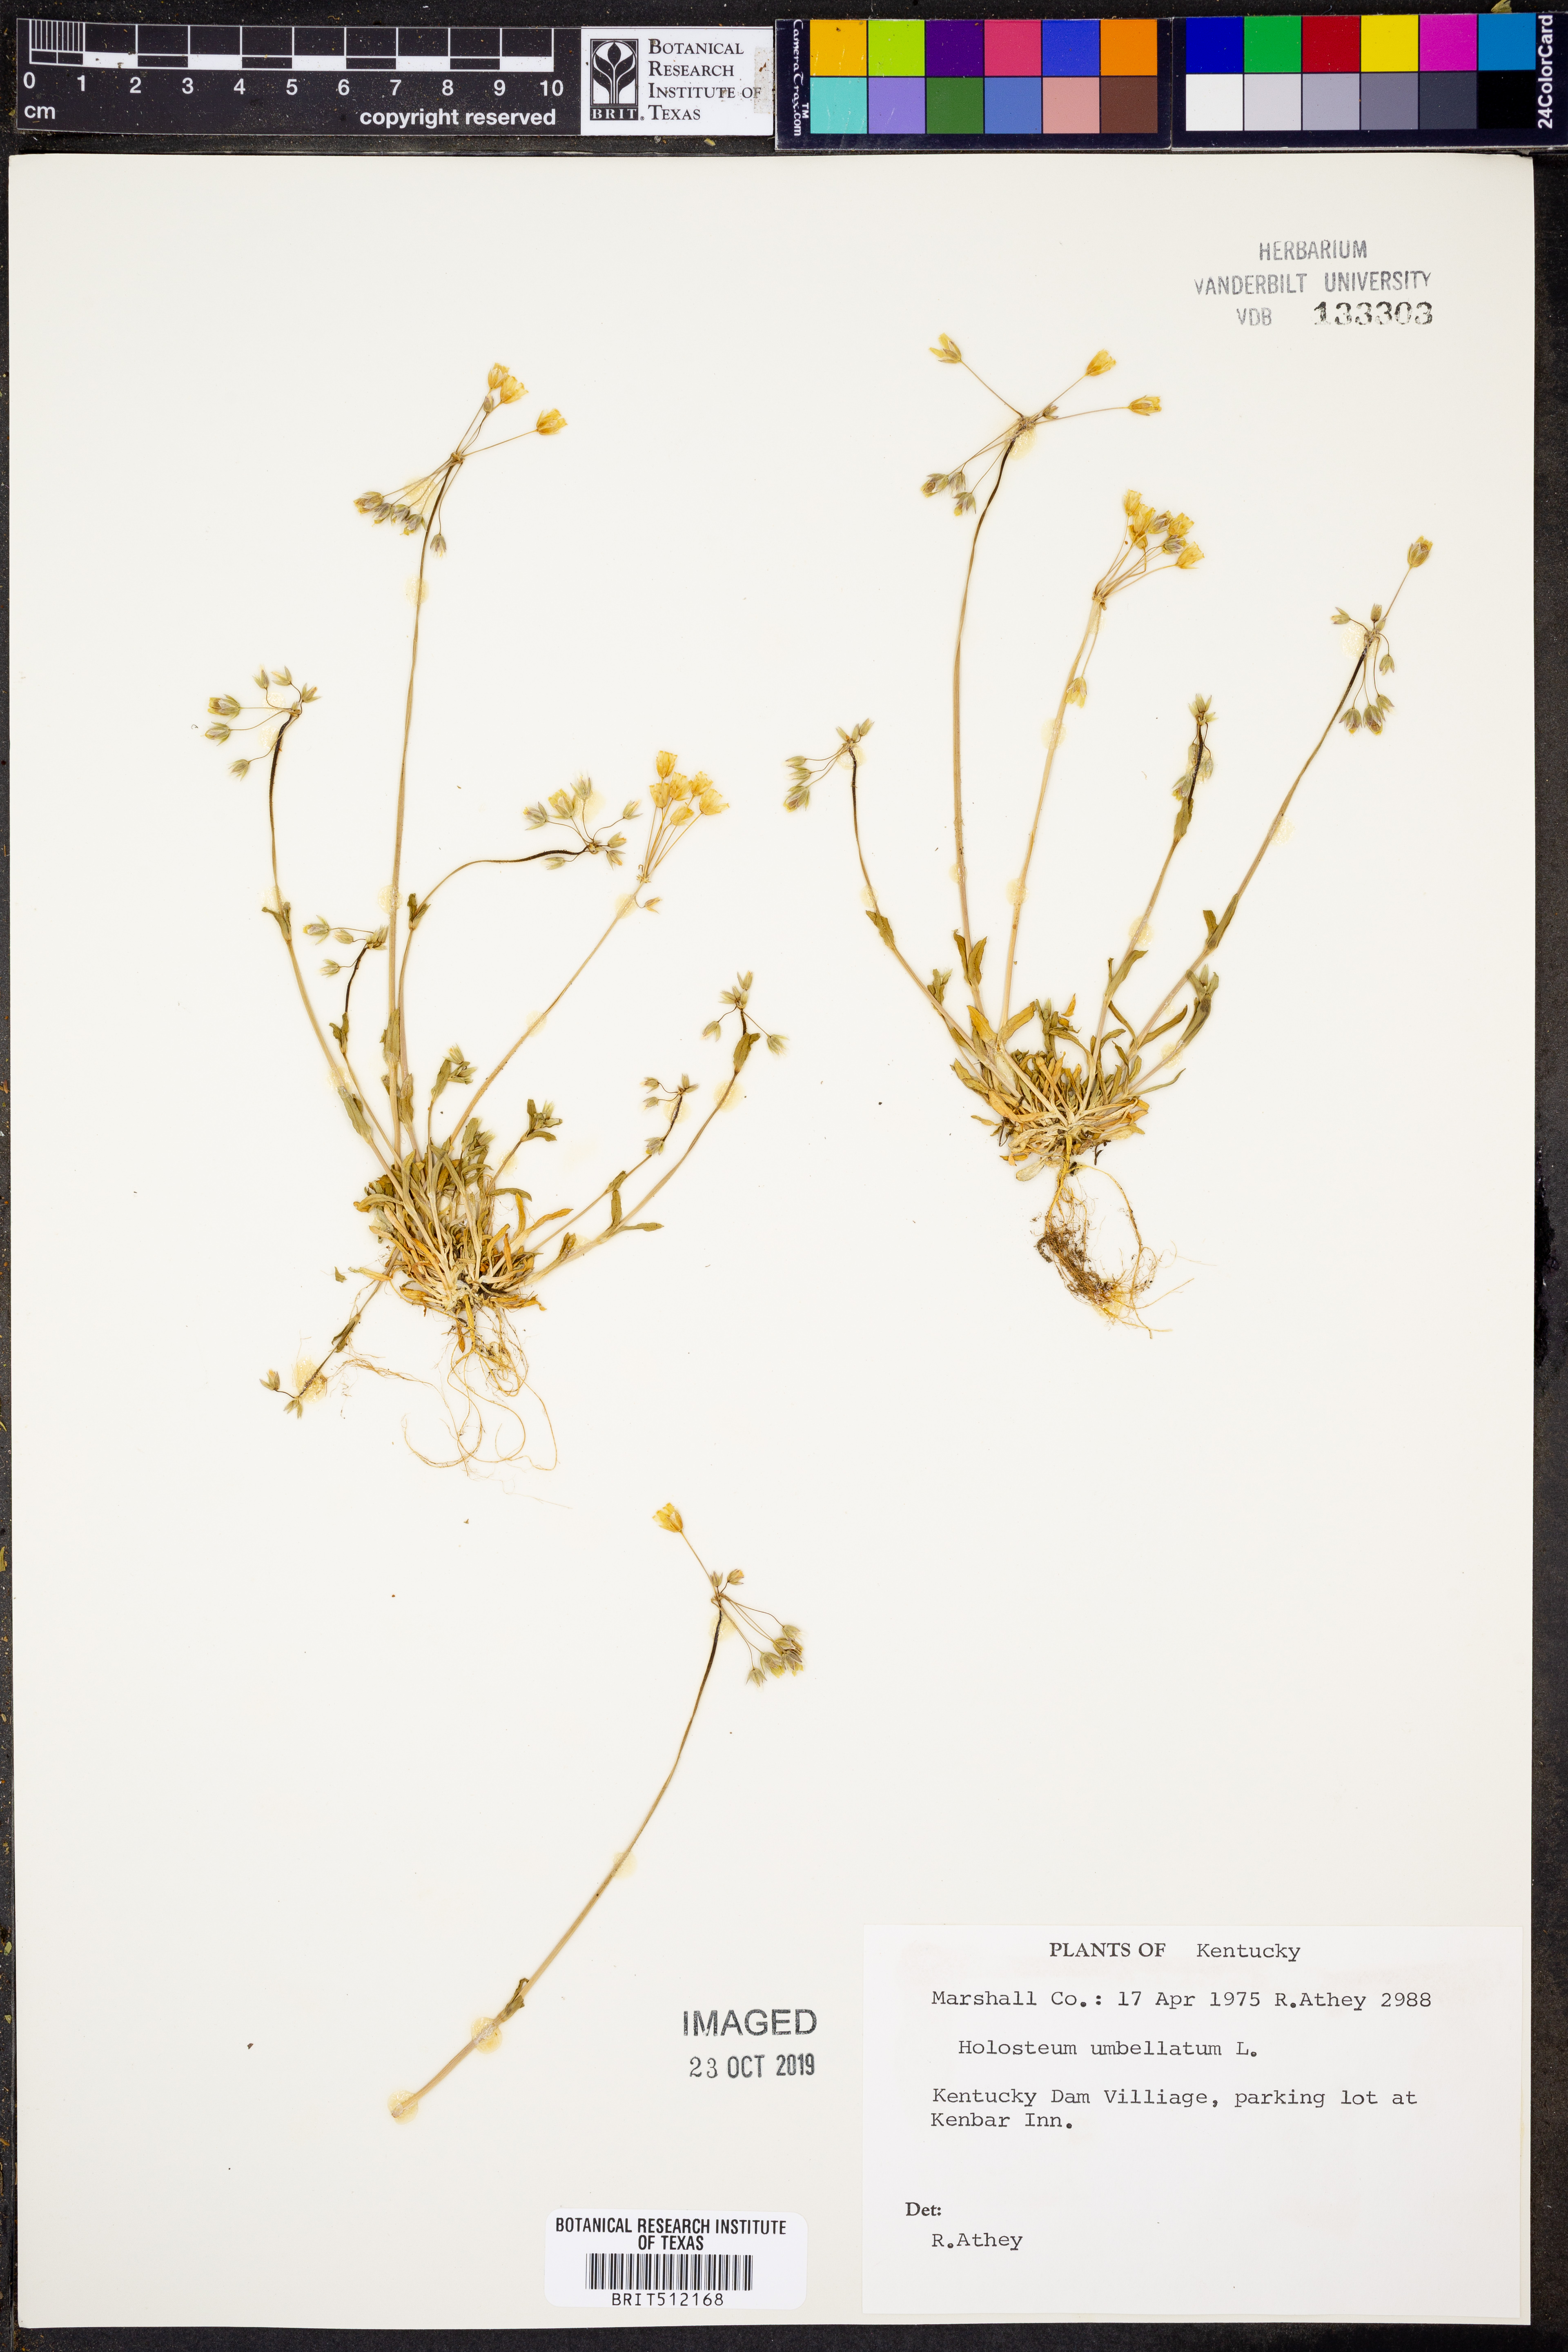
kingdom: Plantae
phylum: Tracheophyta
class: Magnoliopsida
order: Caryophyllales
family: Caryophyllaceae
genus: Holosteum
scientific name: Holosteum umbellatum
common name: Jagged chickweed
